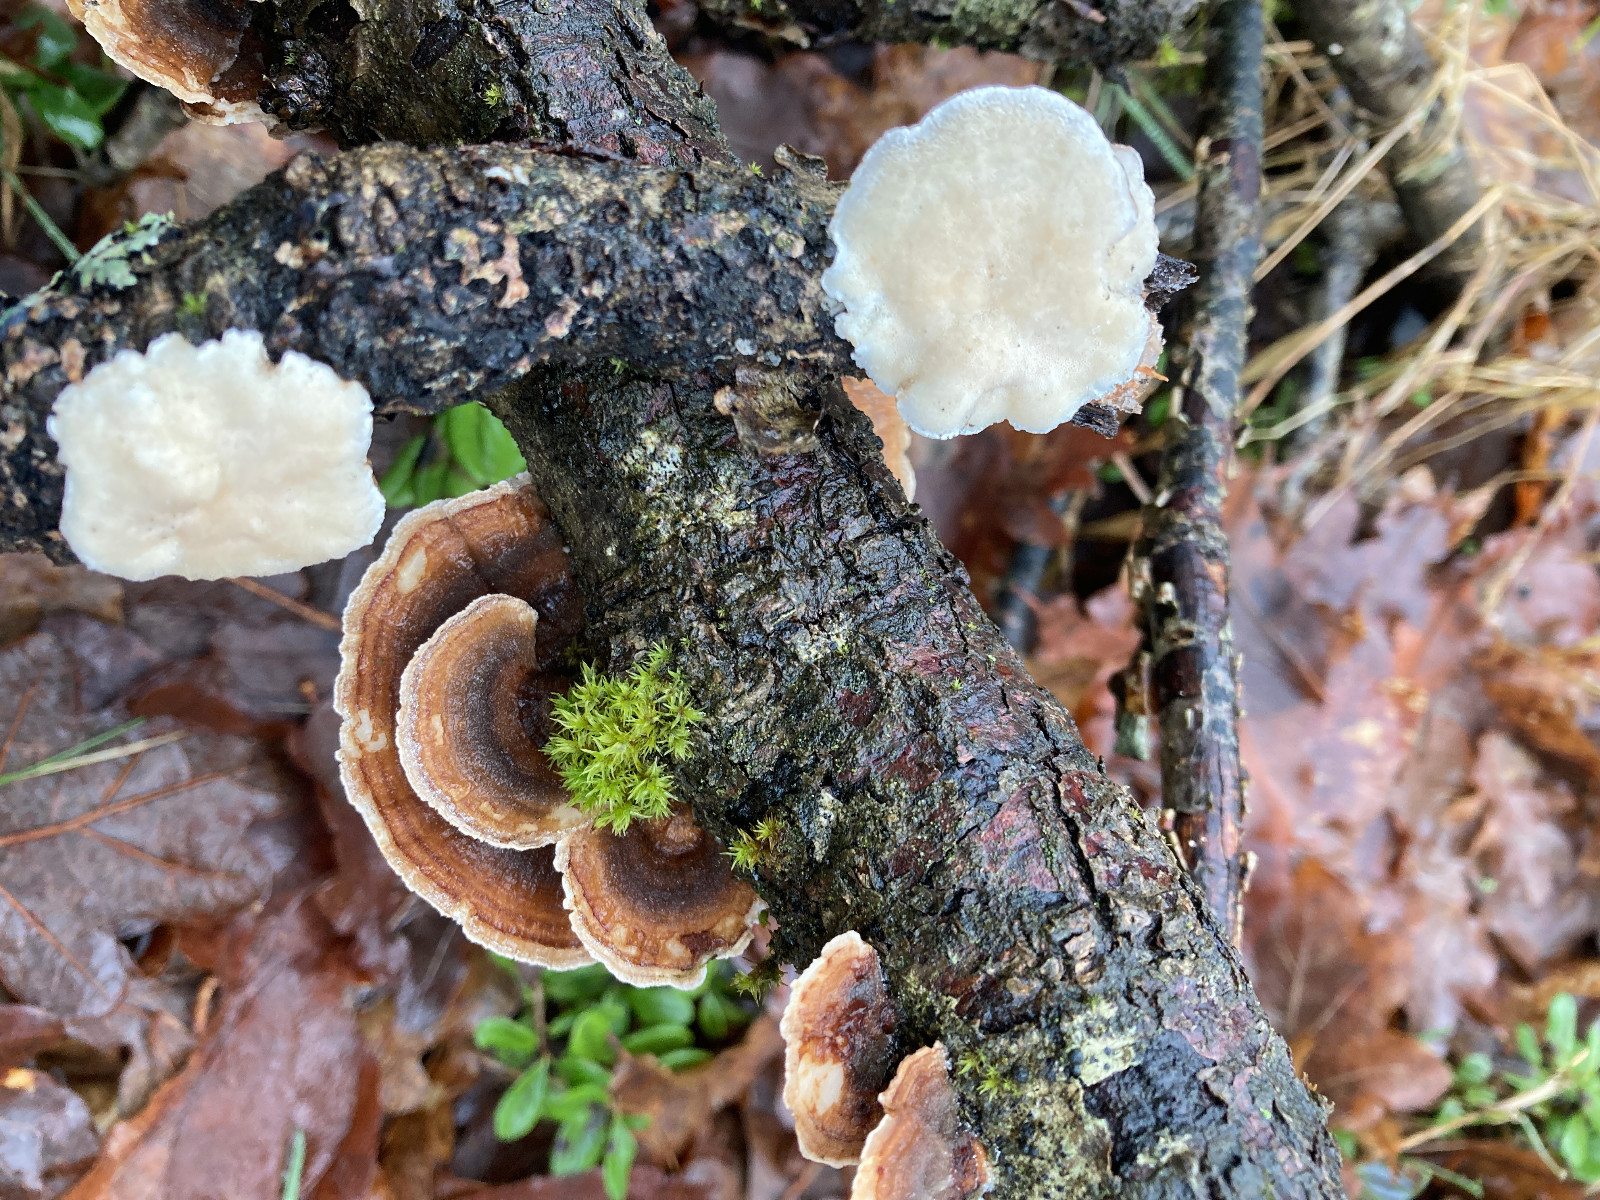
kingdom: Fungi
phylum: Basidiomycota
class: Agaricomycetes
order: Polyporales
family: Polyporaceae
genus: Trametes
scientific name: Trametes versicolor
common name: broget læderporesvamp
